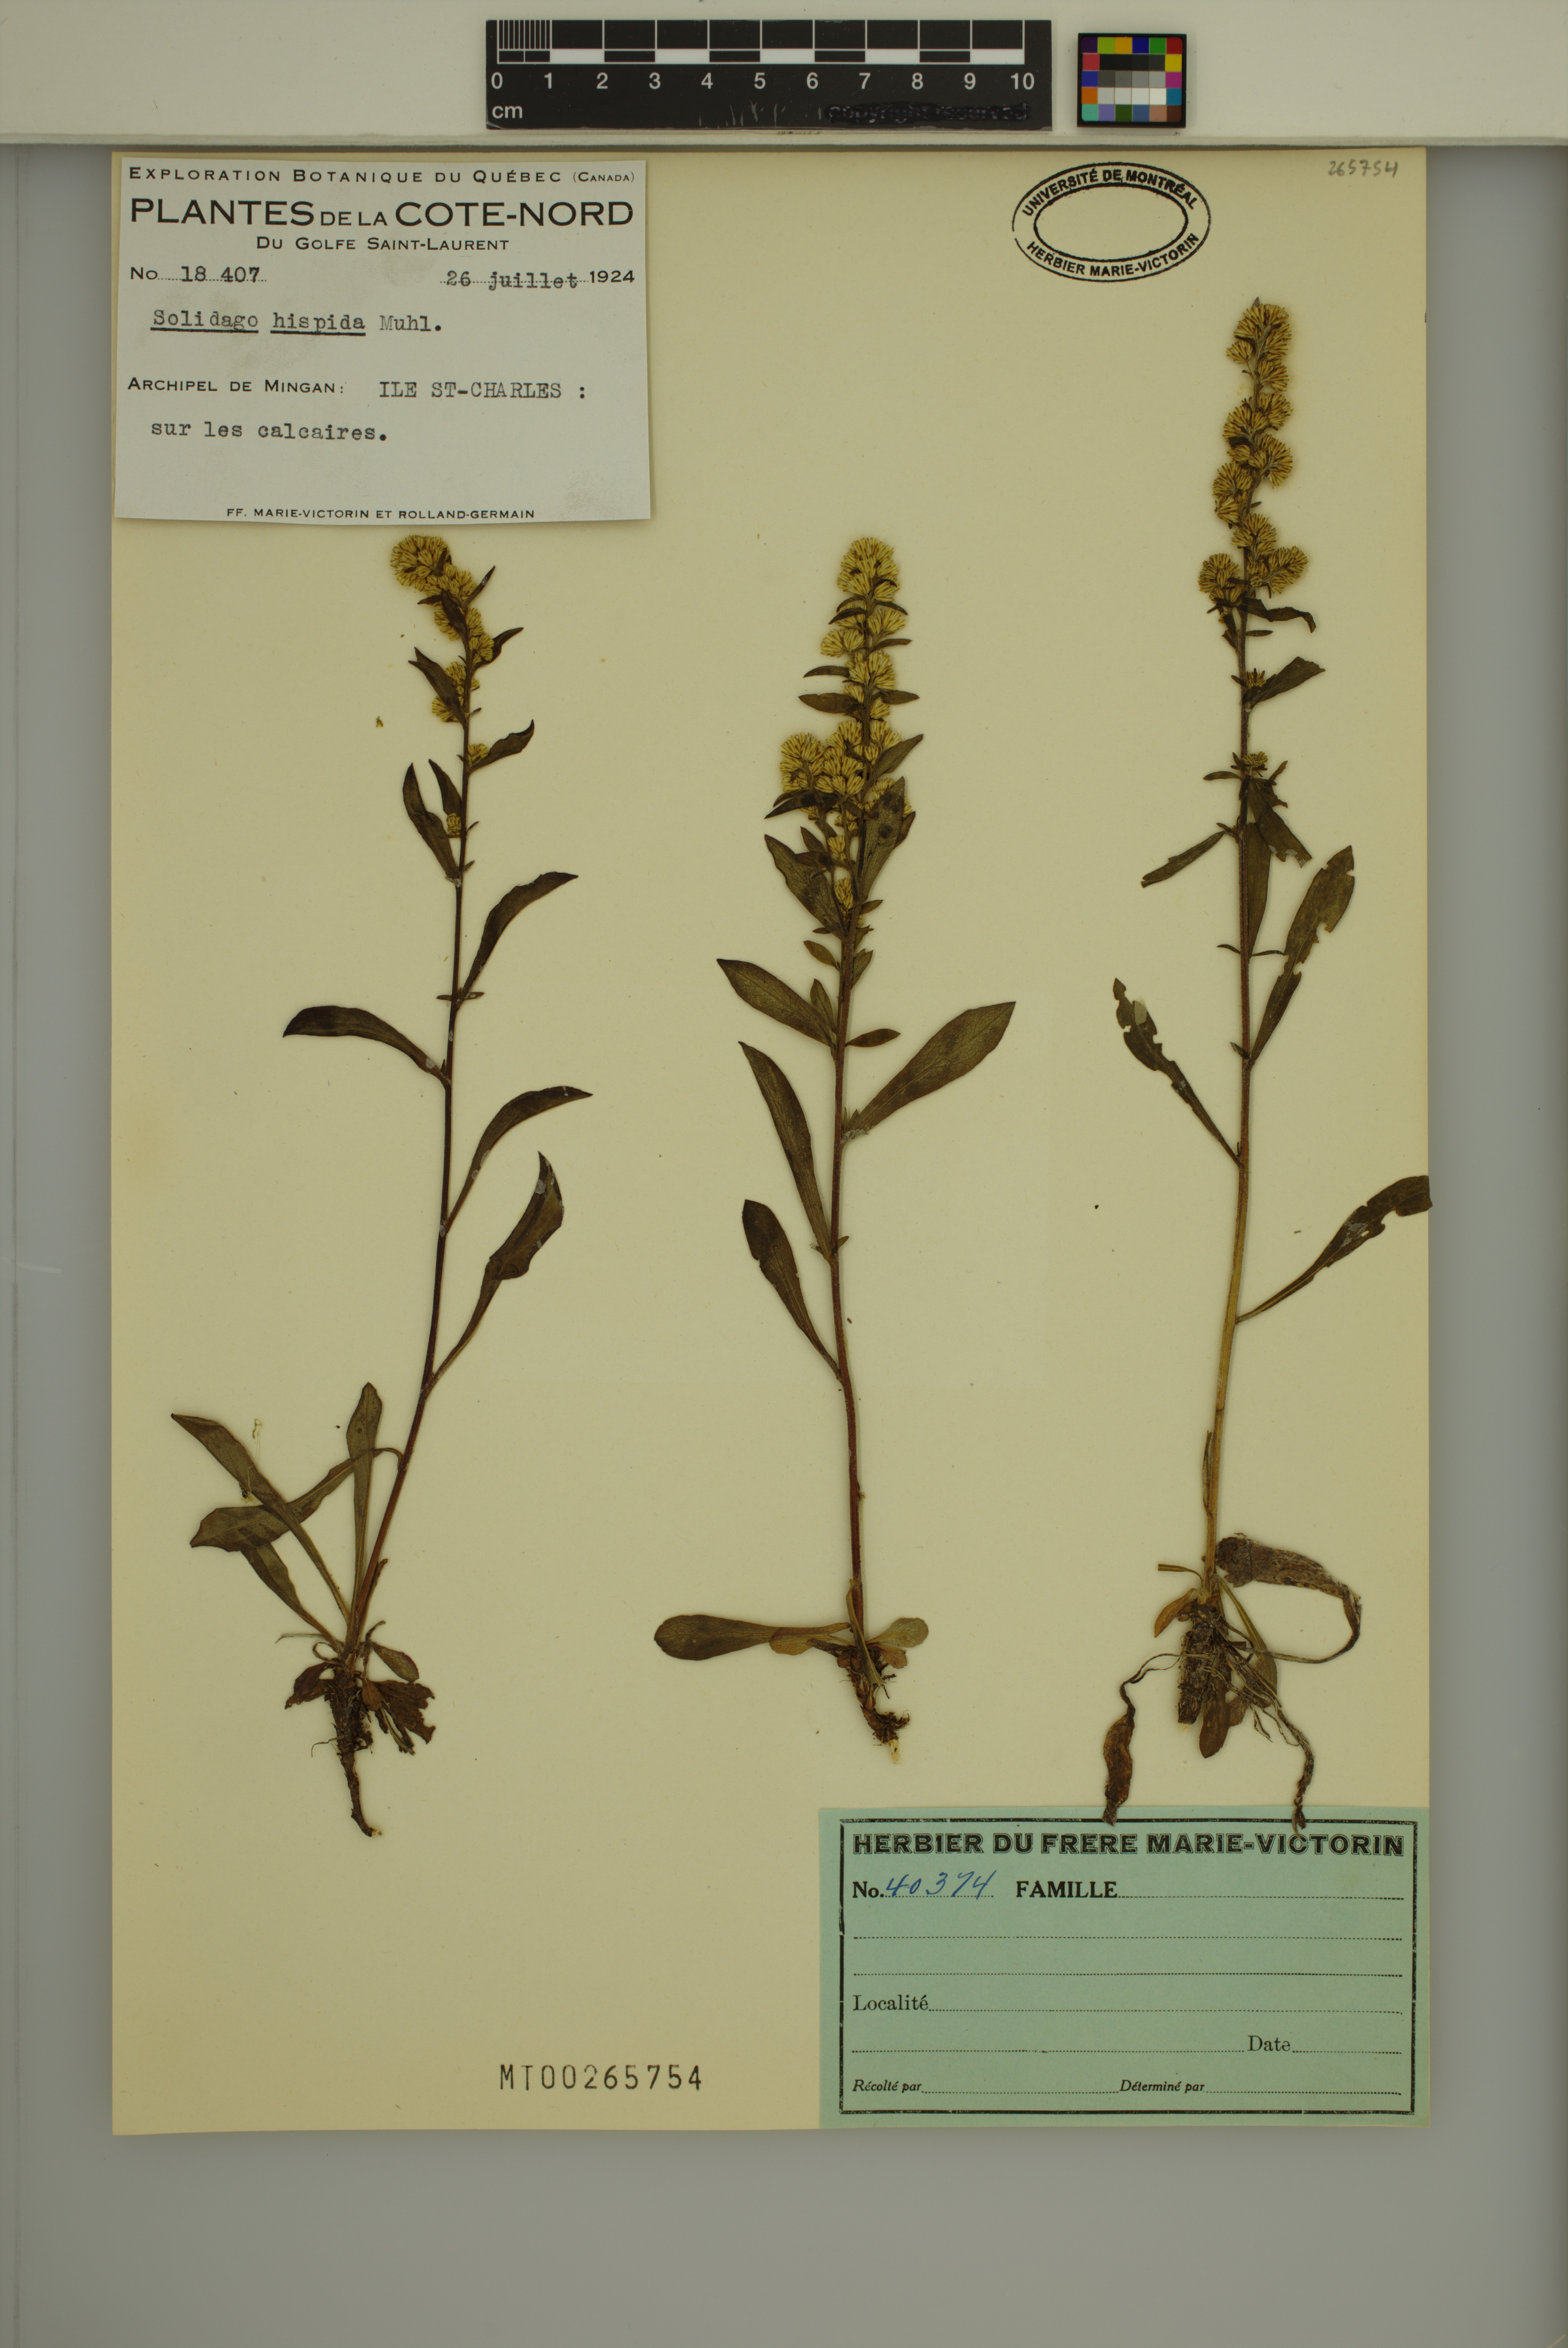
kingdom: Plantae
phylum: Tracheophyta
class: Magnoliopsida
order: Asterales
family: Asteraceae
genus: Solidago
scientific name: Solidago hispida
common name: Hairy goldenrod
